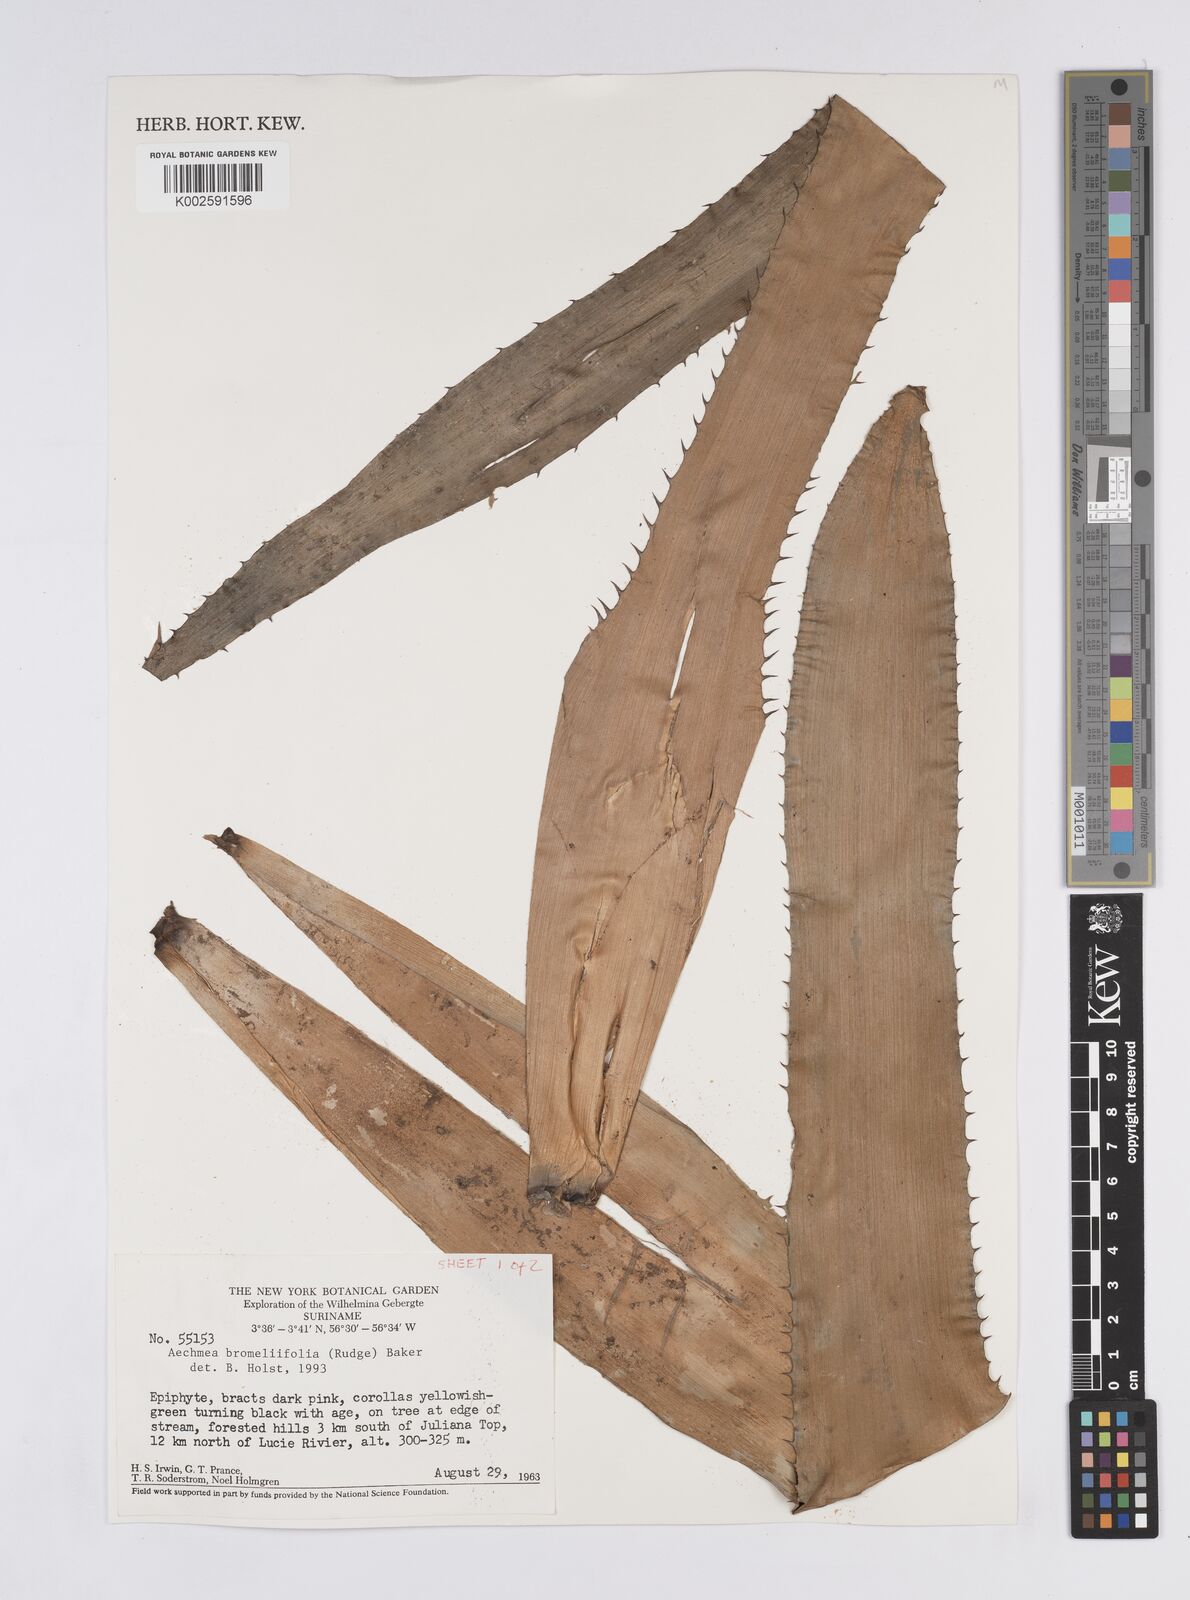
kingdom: Plantae
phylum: Tracheophyta
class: Liliopsida
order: Poales
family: Bromeliaceae
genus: Aechmea
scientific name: Aechmea bromeliifolia
